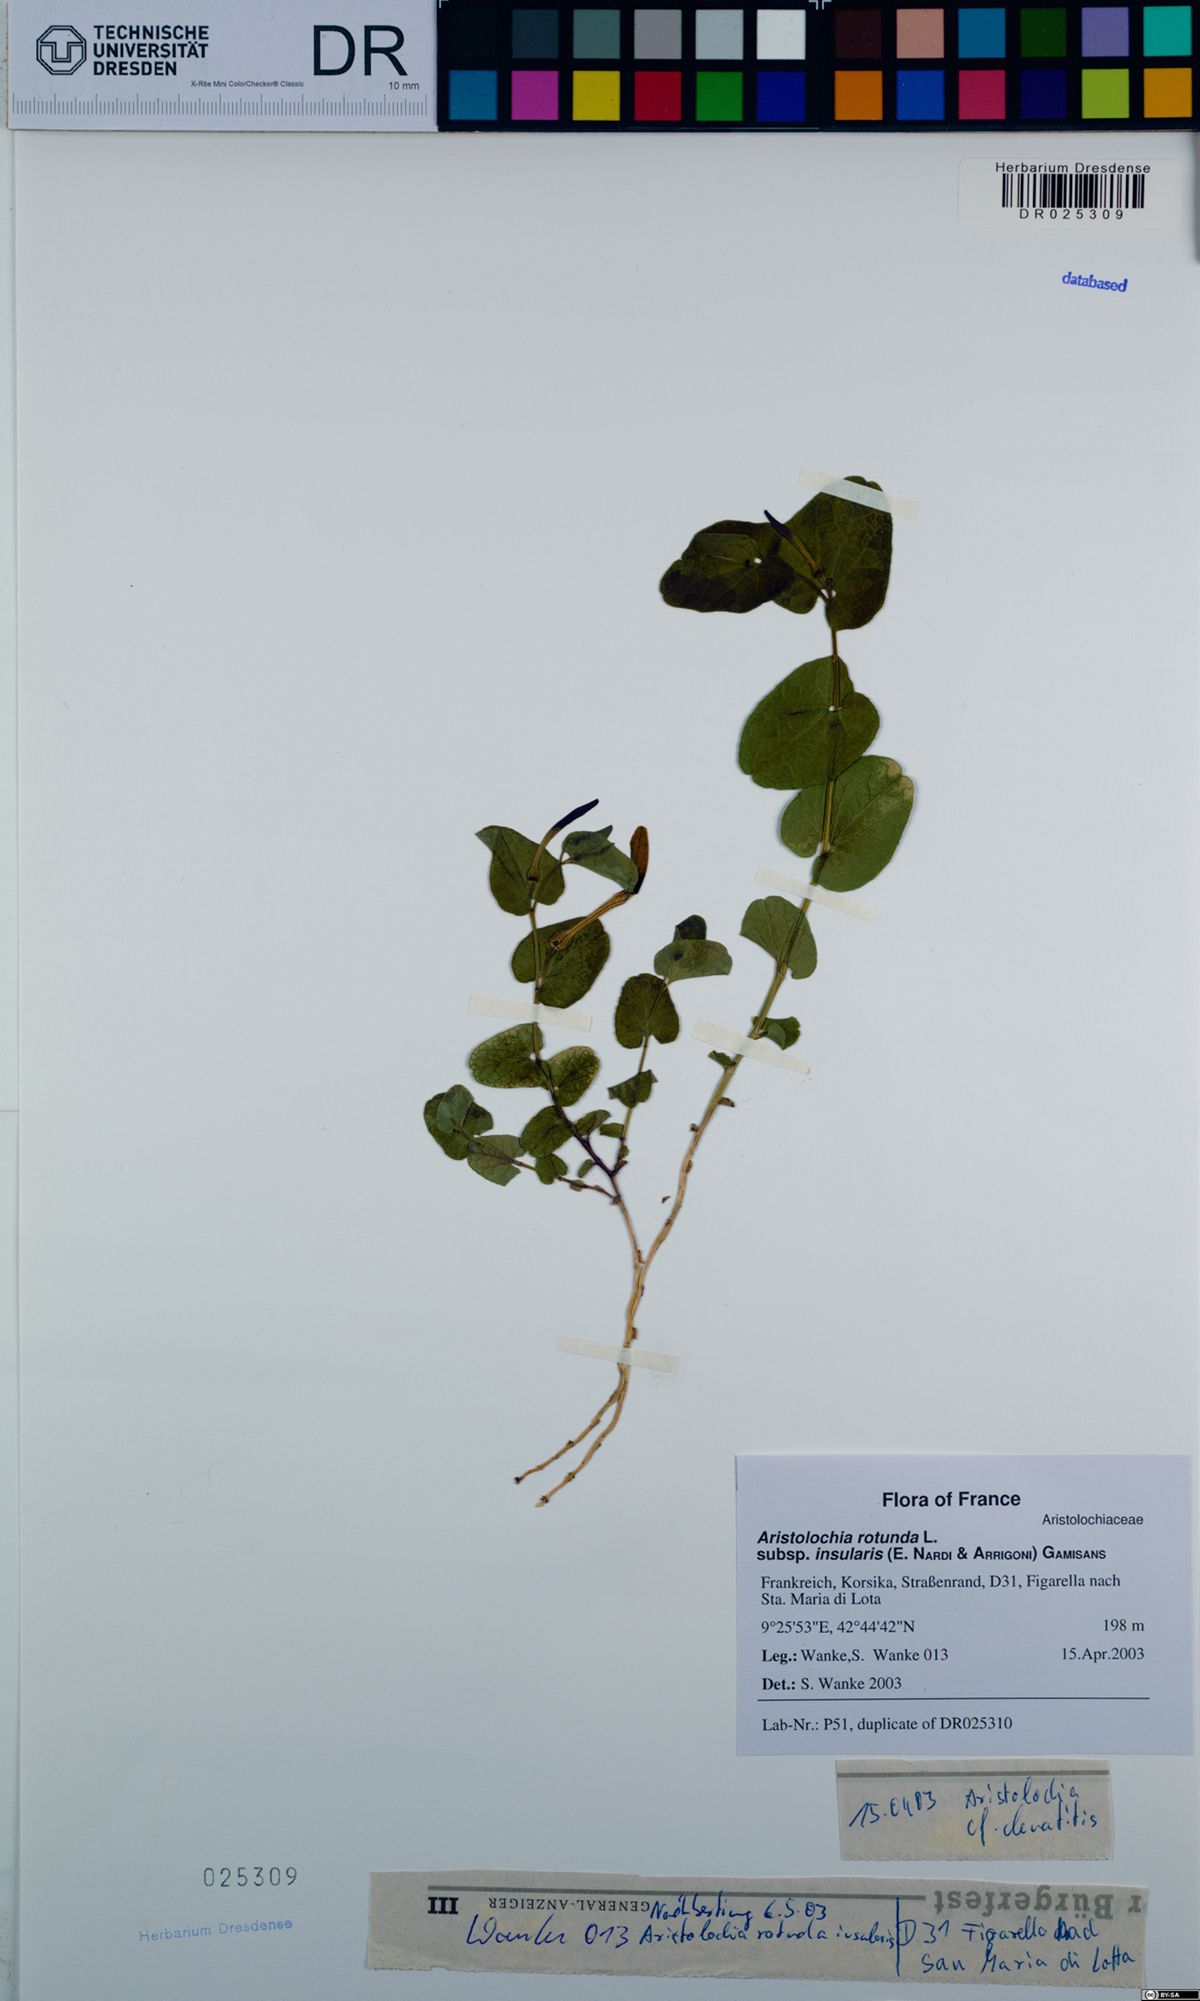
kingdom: Plantae
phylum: Tracheophyta
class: Magnoliopsida
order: Piperales
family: Aristolochiaceae
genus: Aristolochia
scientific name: Aristolochia rotunda
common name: Smearwort
